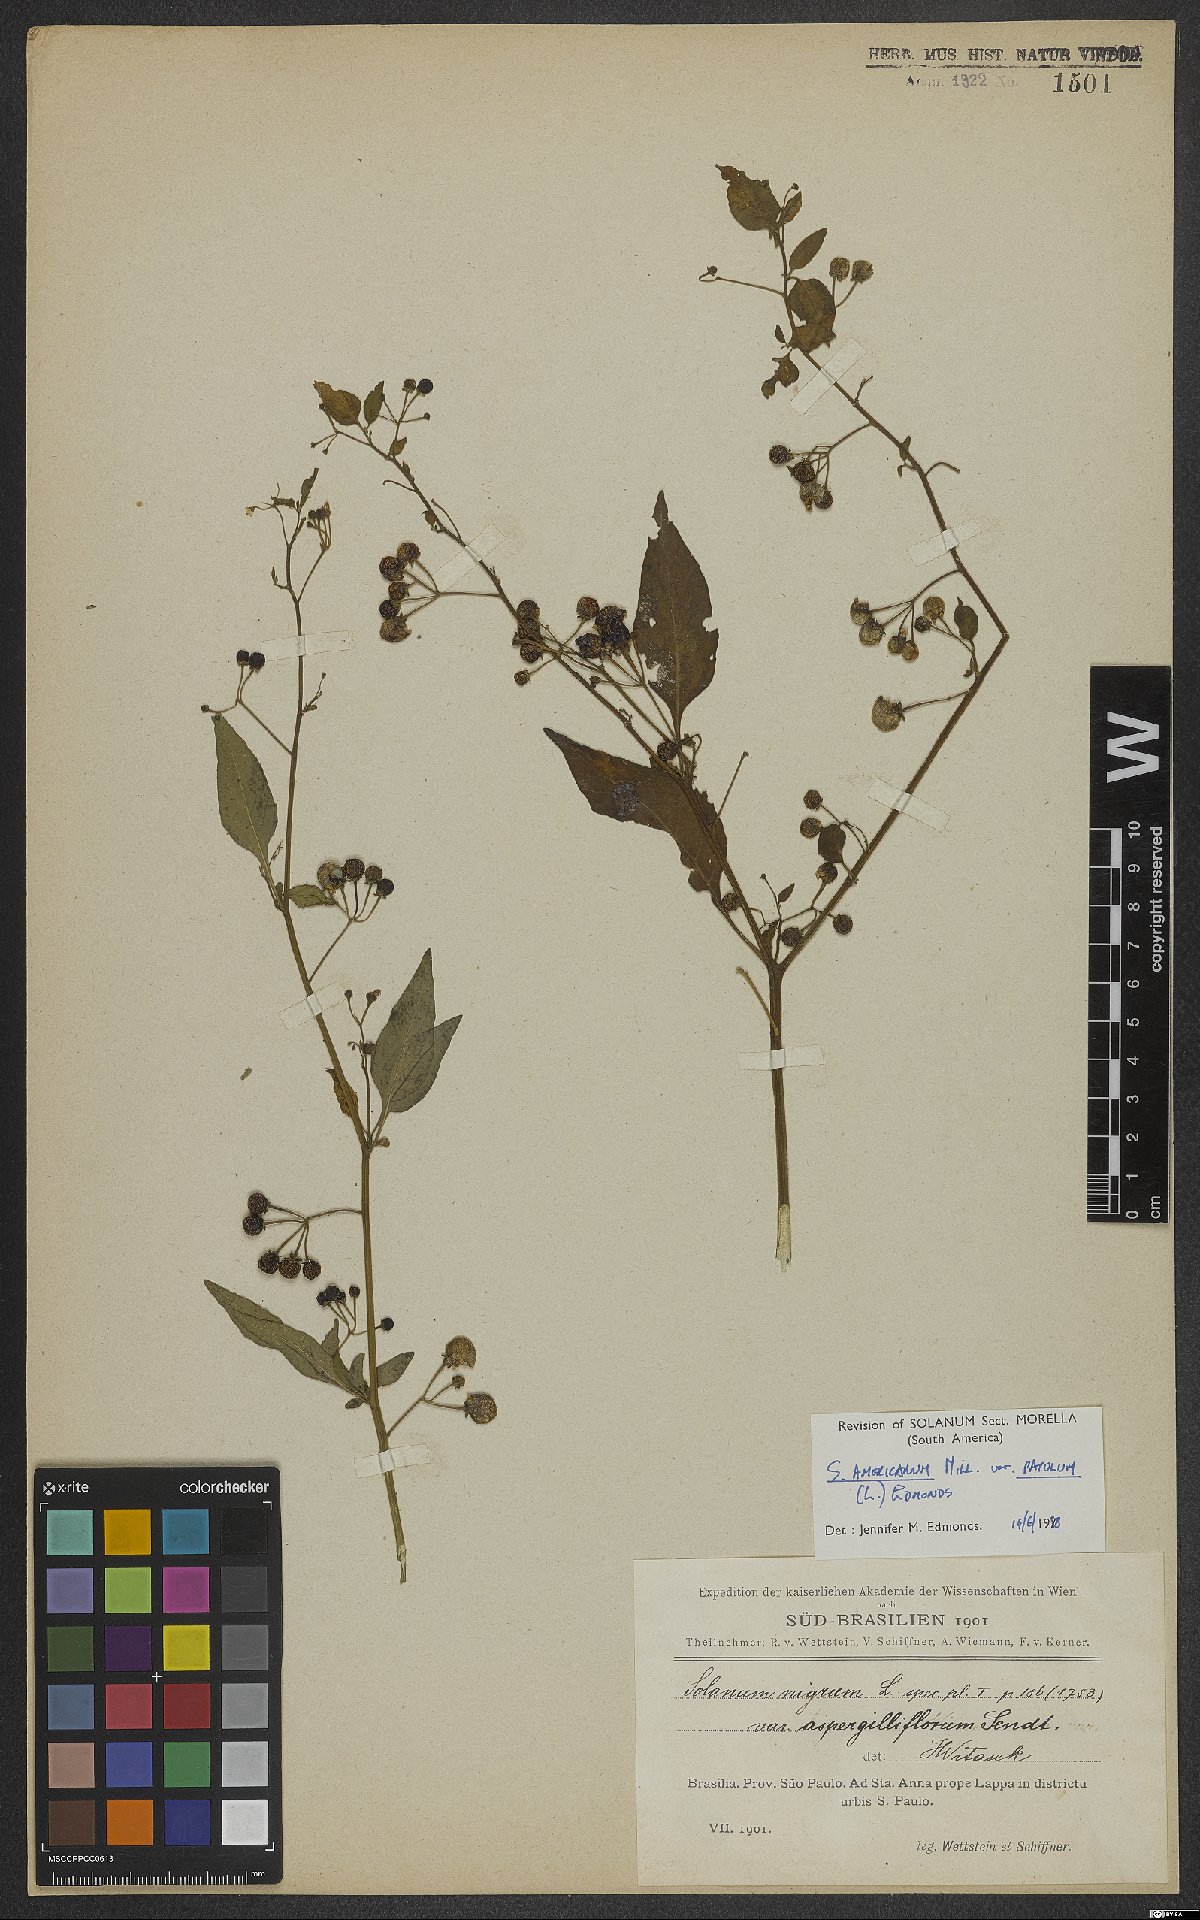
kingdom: Plantae
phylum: Tracheophyta
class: Magnoliopsida
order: Solanales
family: Solanaceae
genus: Solanum
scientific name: Solanum americanum
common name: American black nightshade
